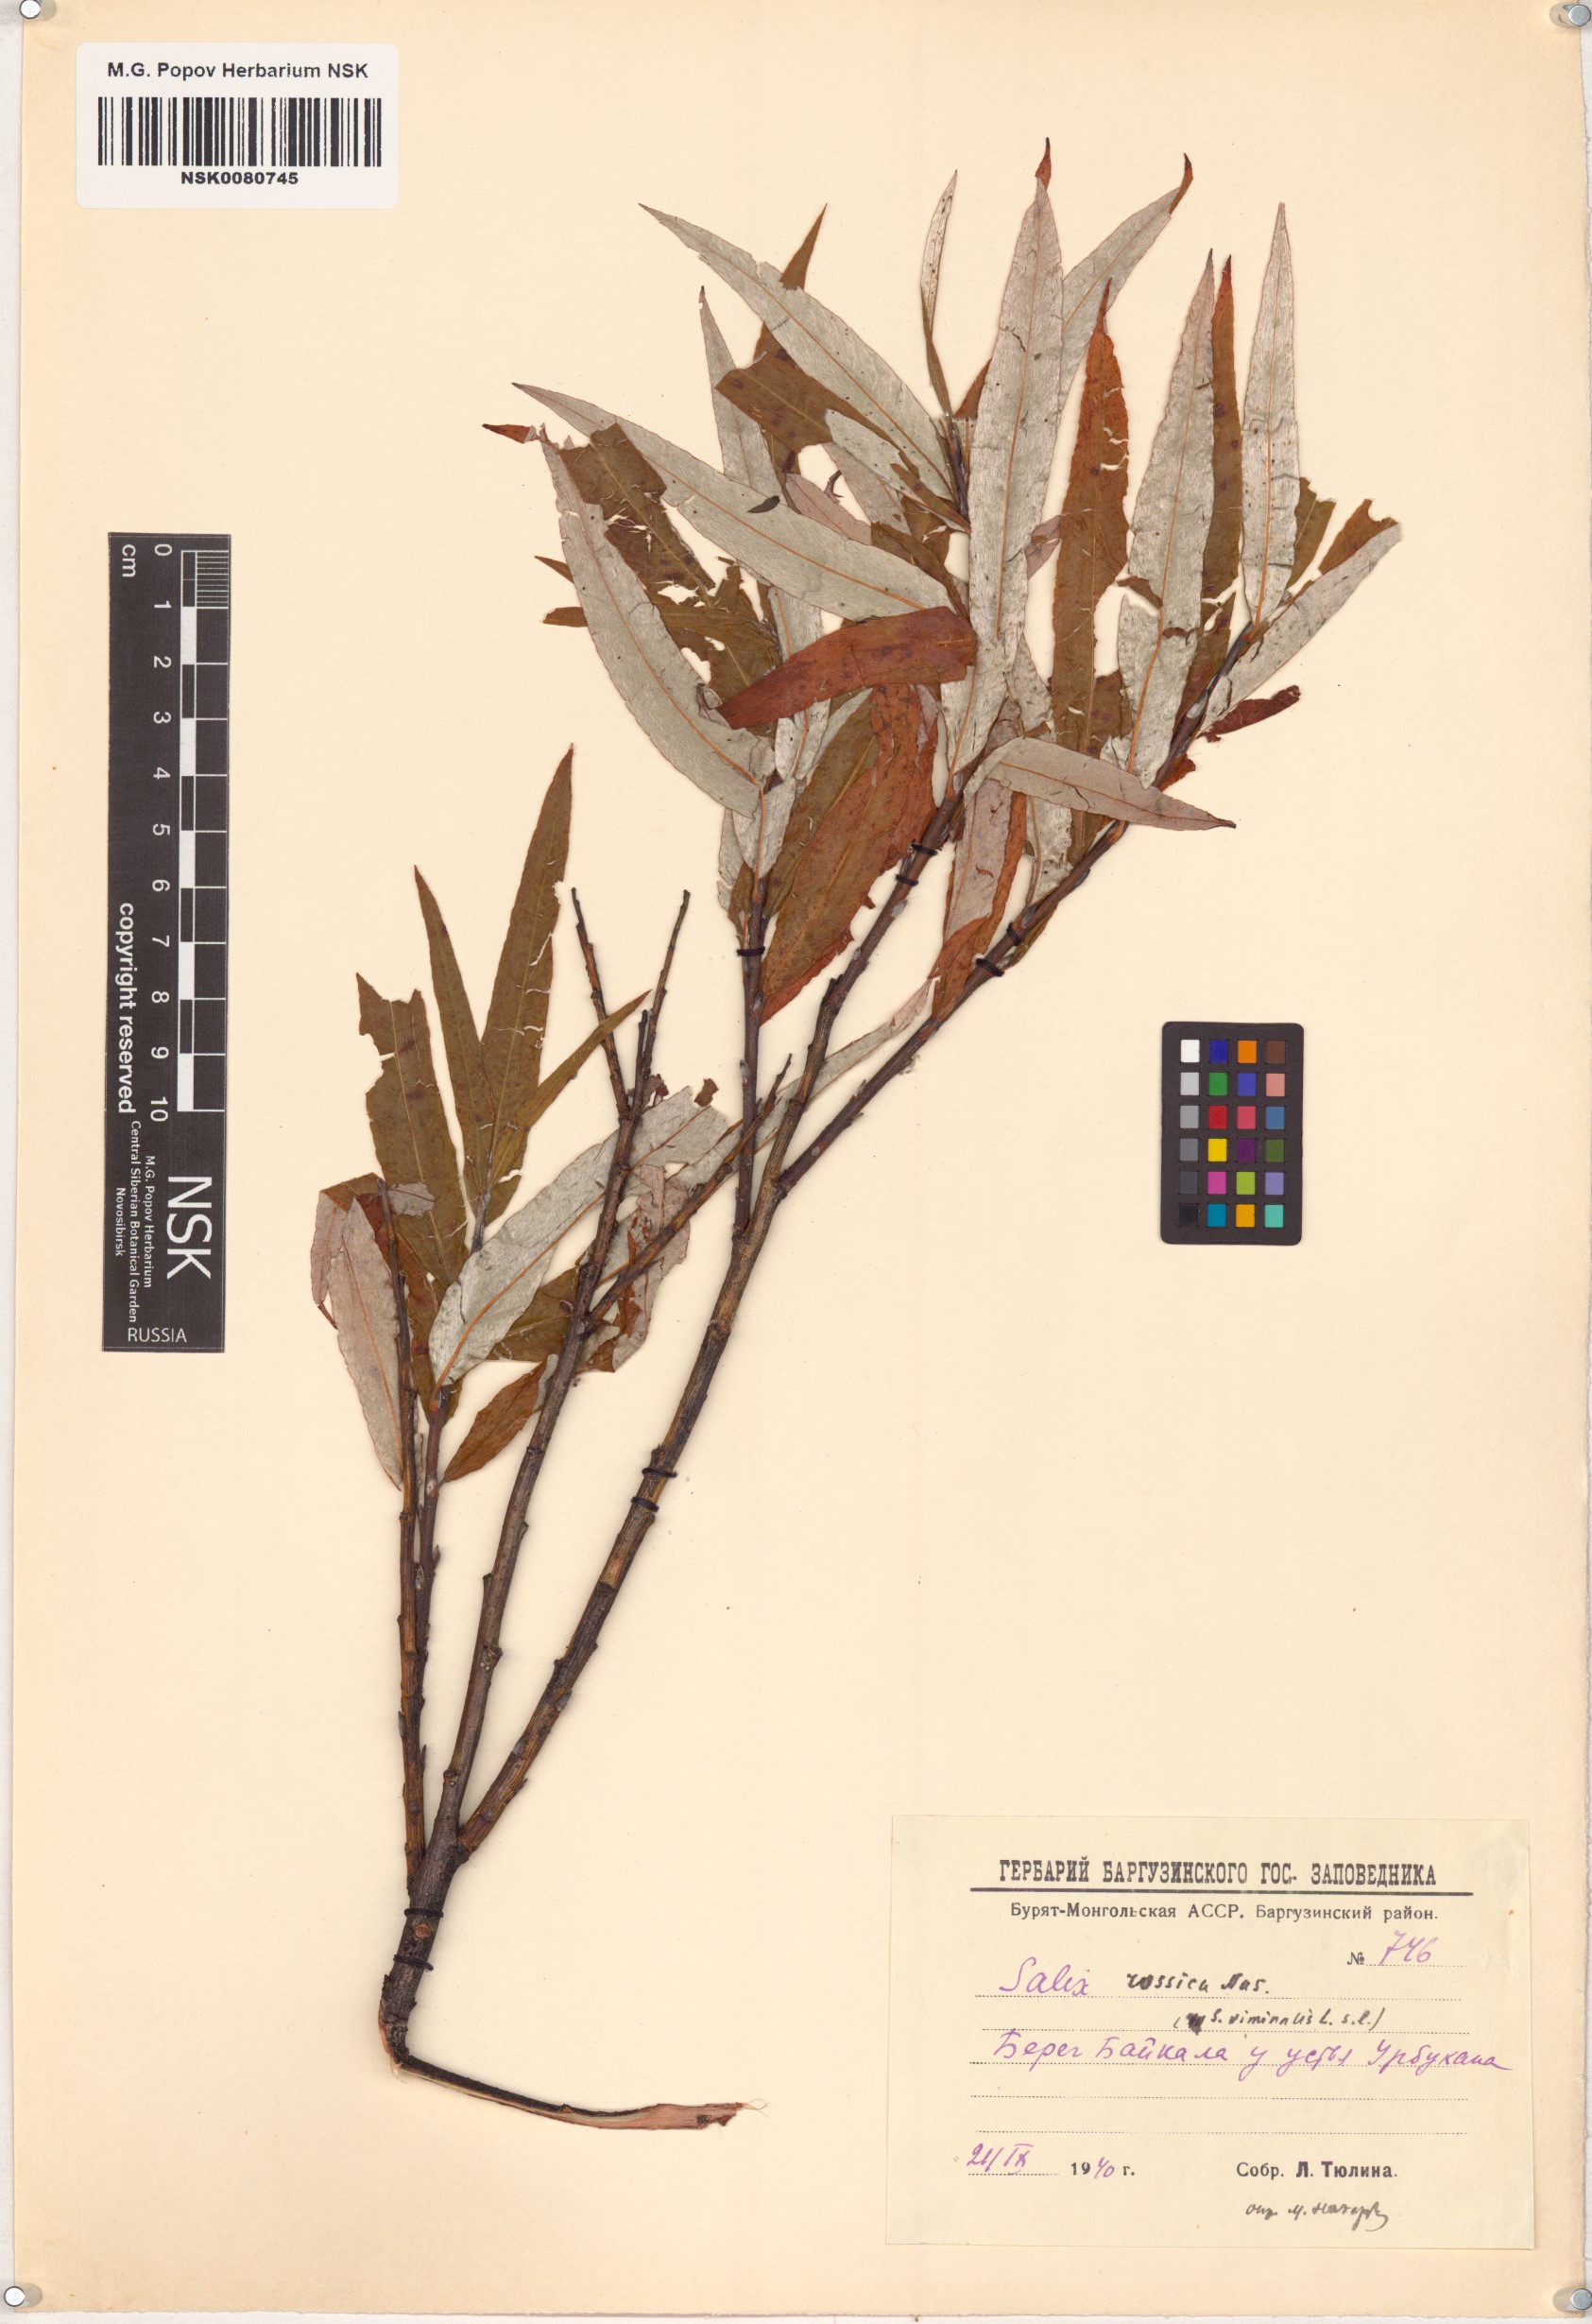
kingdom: Plantae
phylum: Tracheophyta
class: Magnoliopsida
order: Malpighiales
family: Salicaceae
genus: Salix
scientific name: Salix viminalis
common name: Osier
